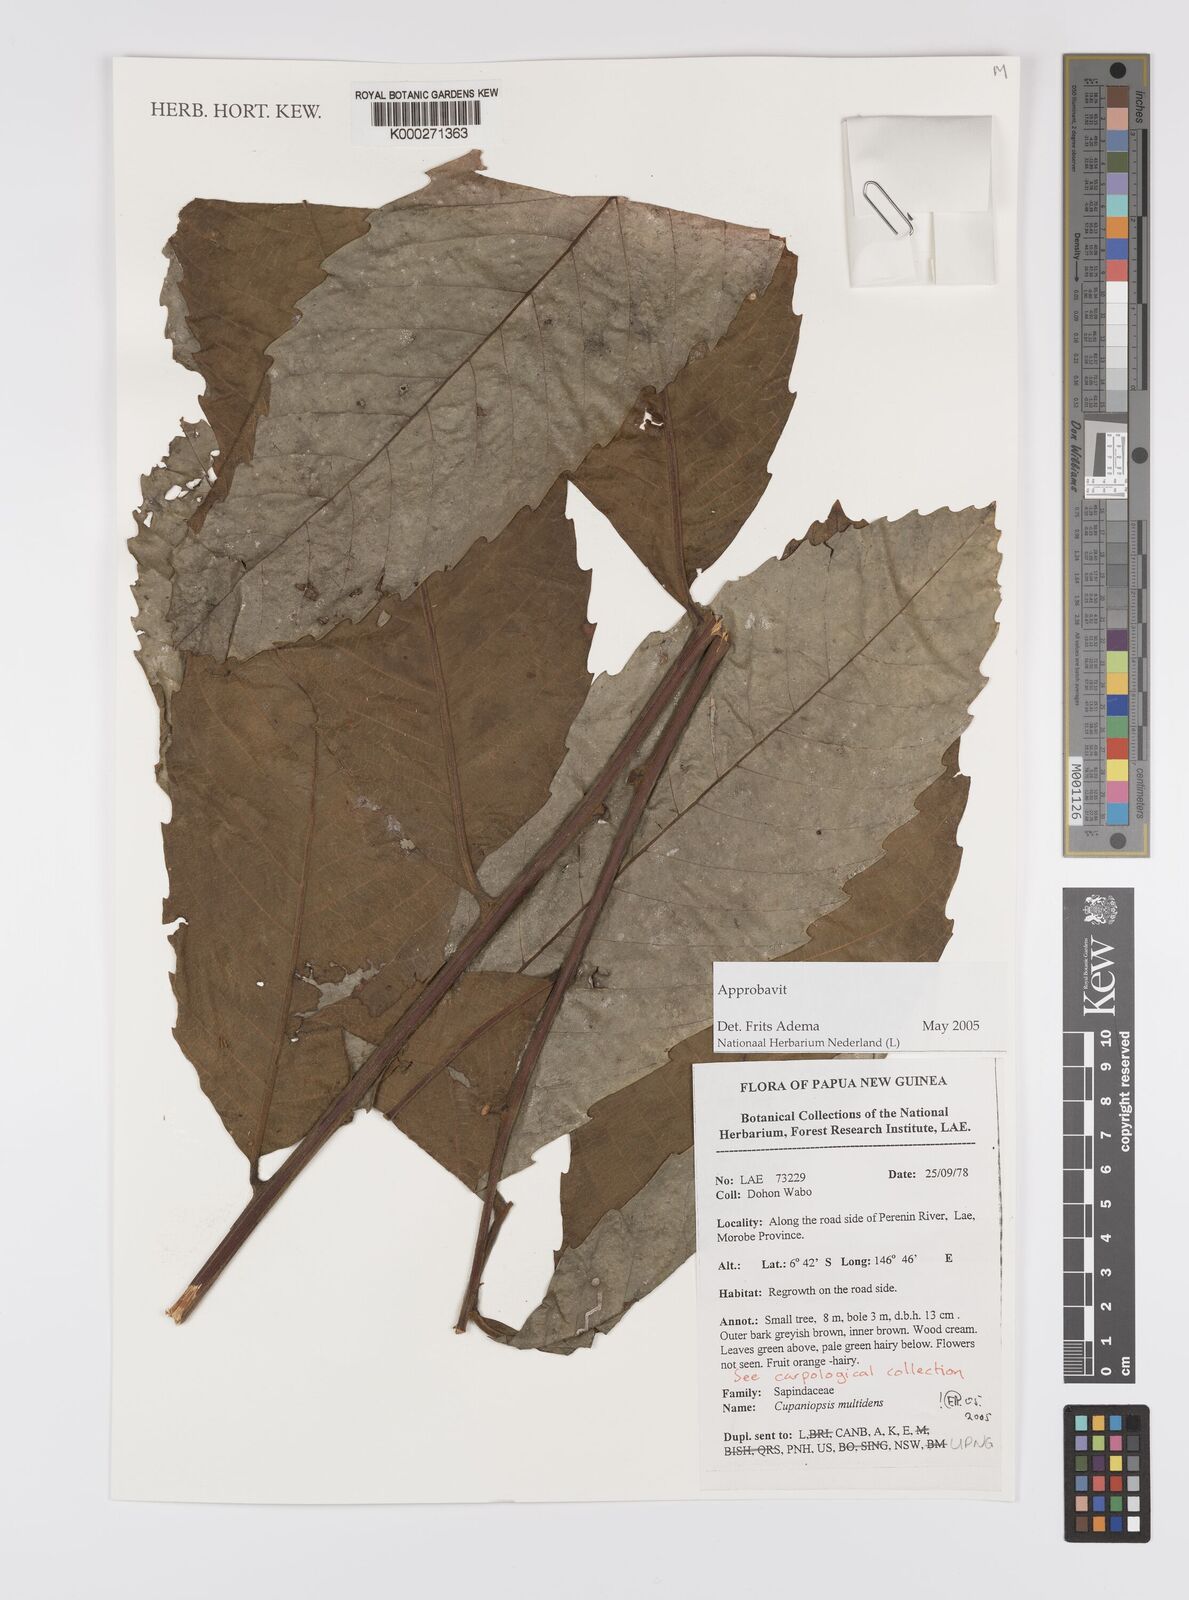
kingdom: Plantae
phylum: Tracheophyta
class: Magnoliopsida
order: Sapindales
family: Sapindaceae
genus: Cupaniopsis
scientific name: Cupaniopsis curvidens
